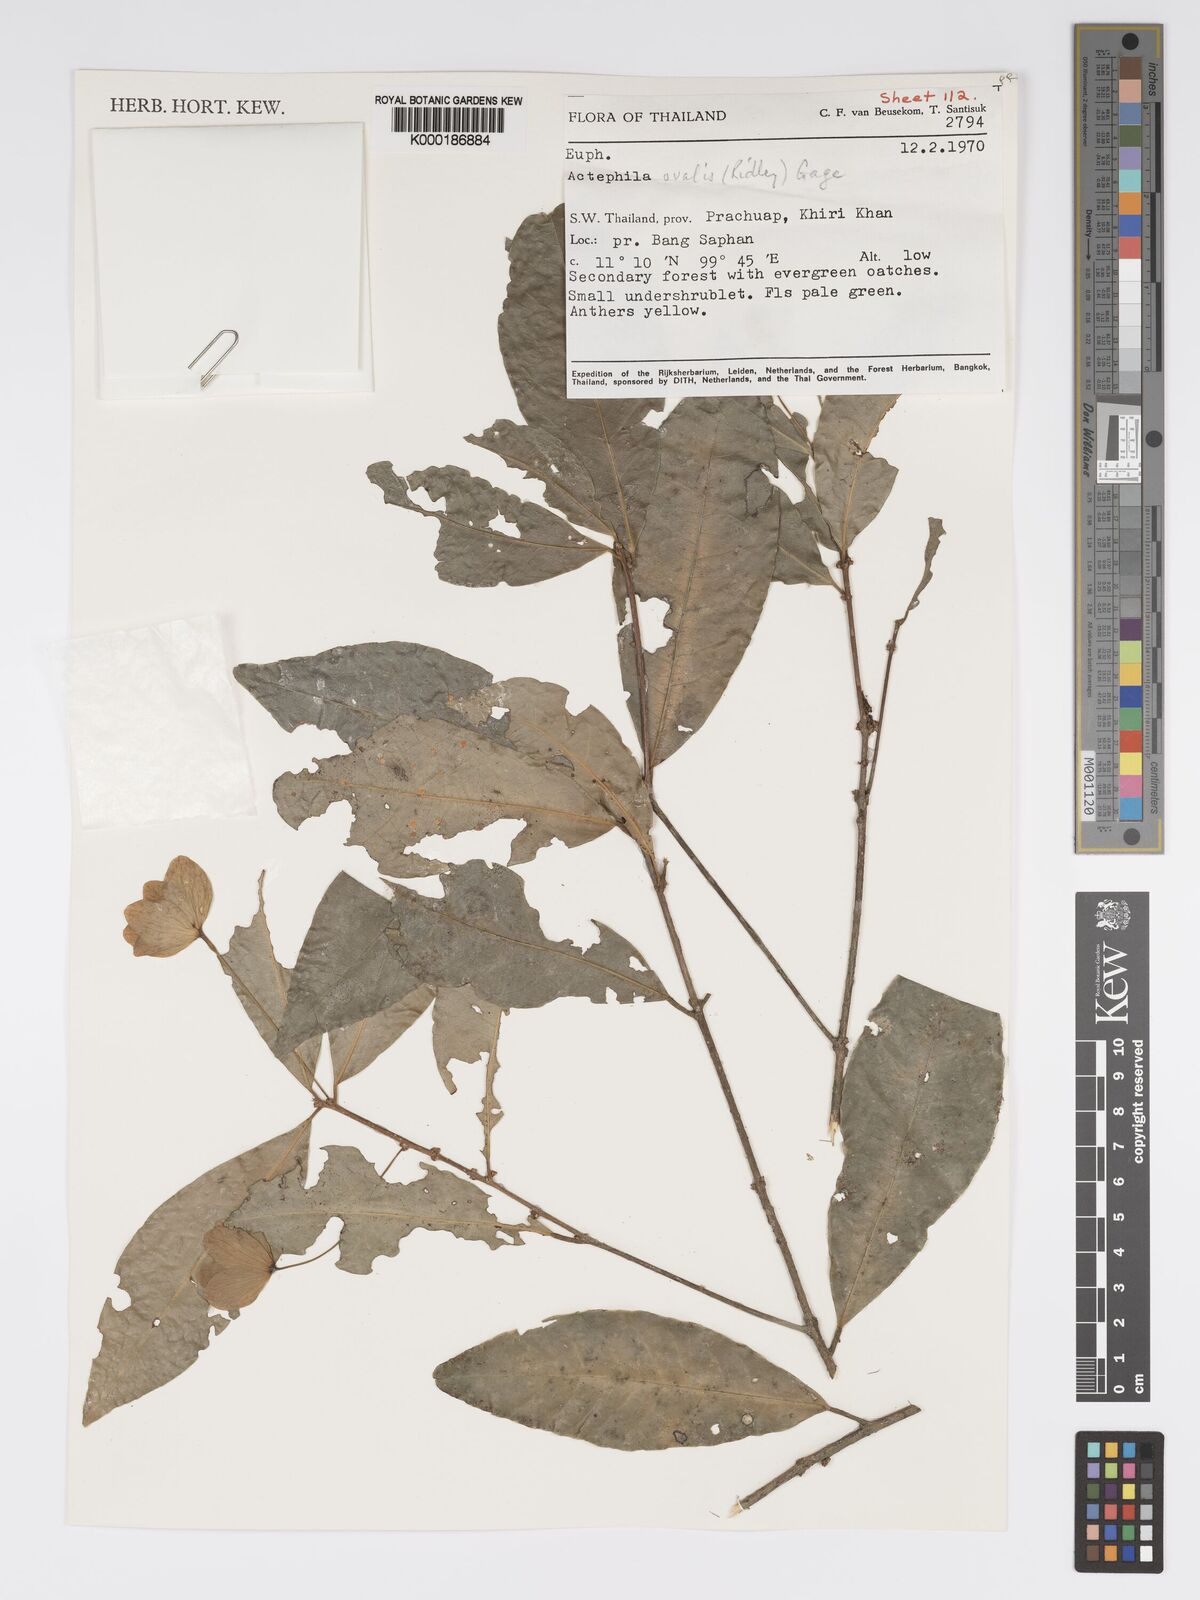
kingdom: Plantae
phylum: Tracheophyta
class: Magnoliopsida
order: Malpighiales
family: Phyllanthaceae
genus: Actephila
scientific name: Actephila ovalis
